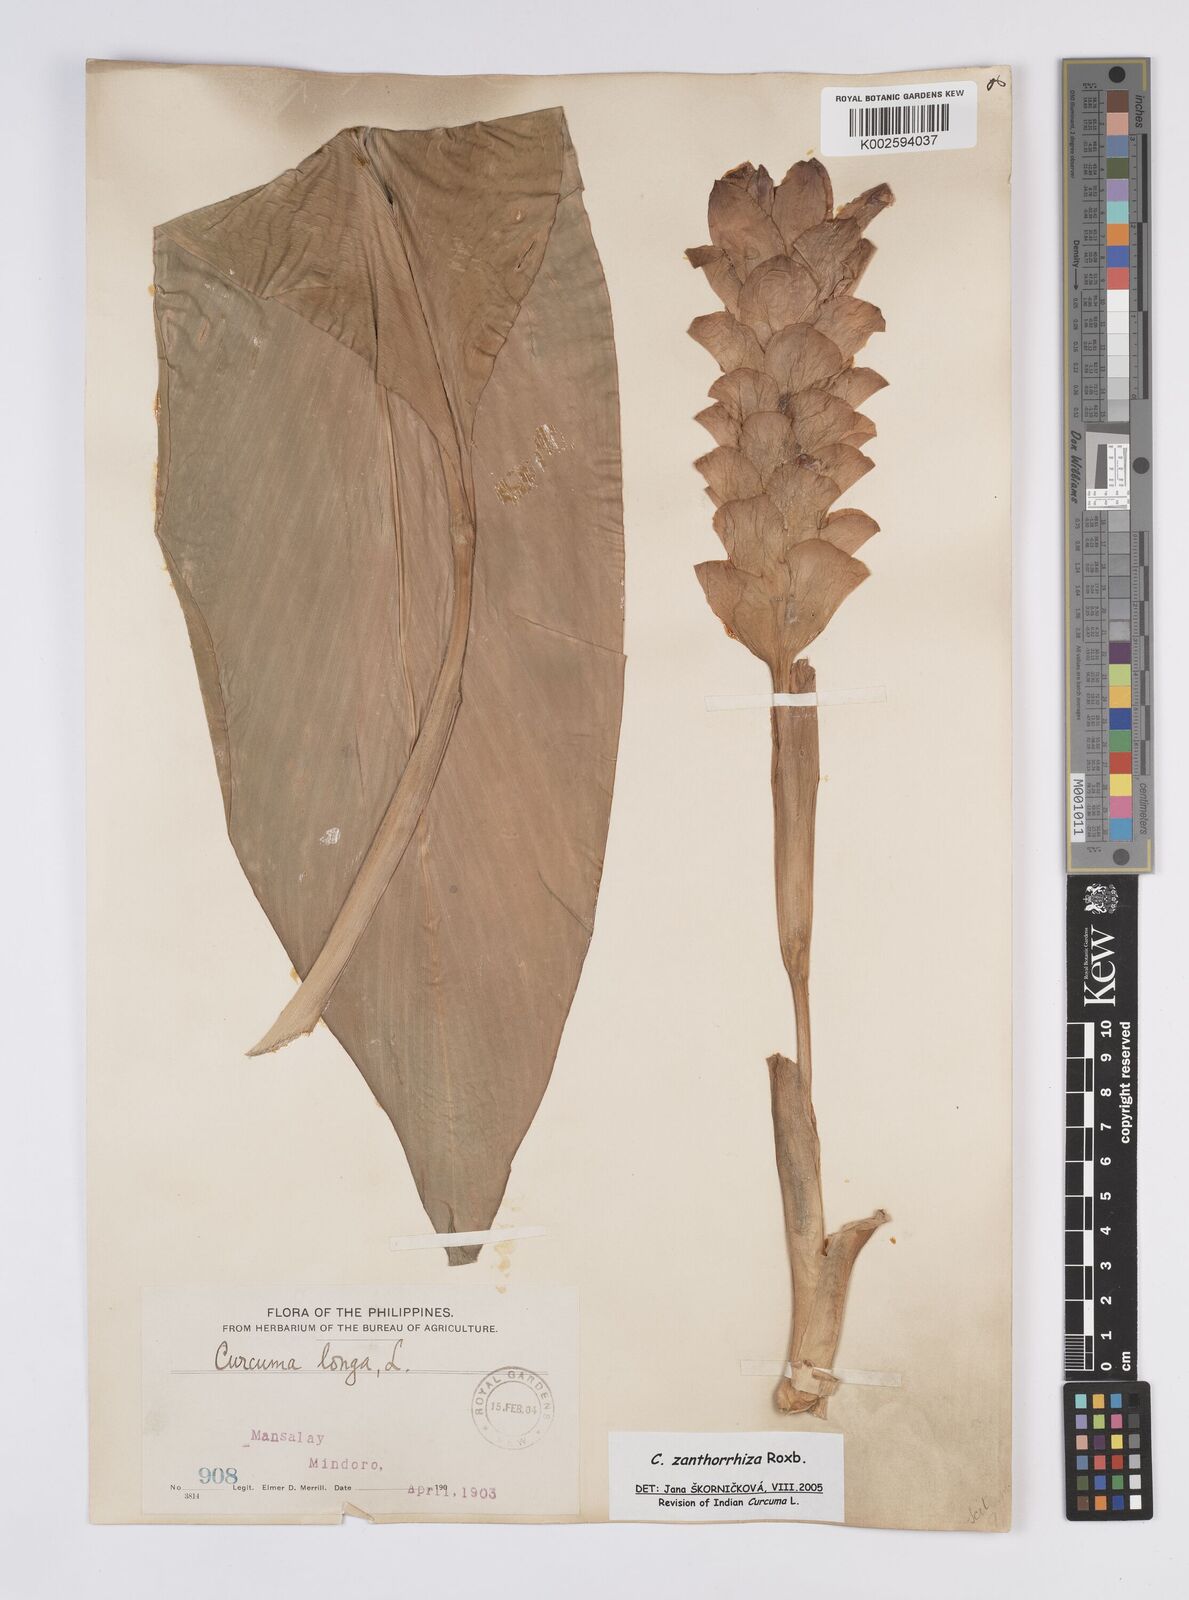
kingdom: Plantae
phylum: Tracheophyta
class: Liliopsida
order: Zingiberales
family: Zingiberaceae
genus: Curcuma
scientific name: Curcuma zanthorrhiza
